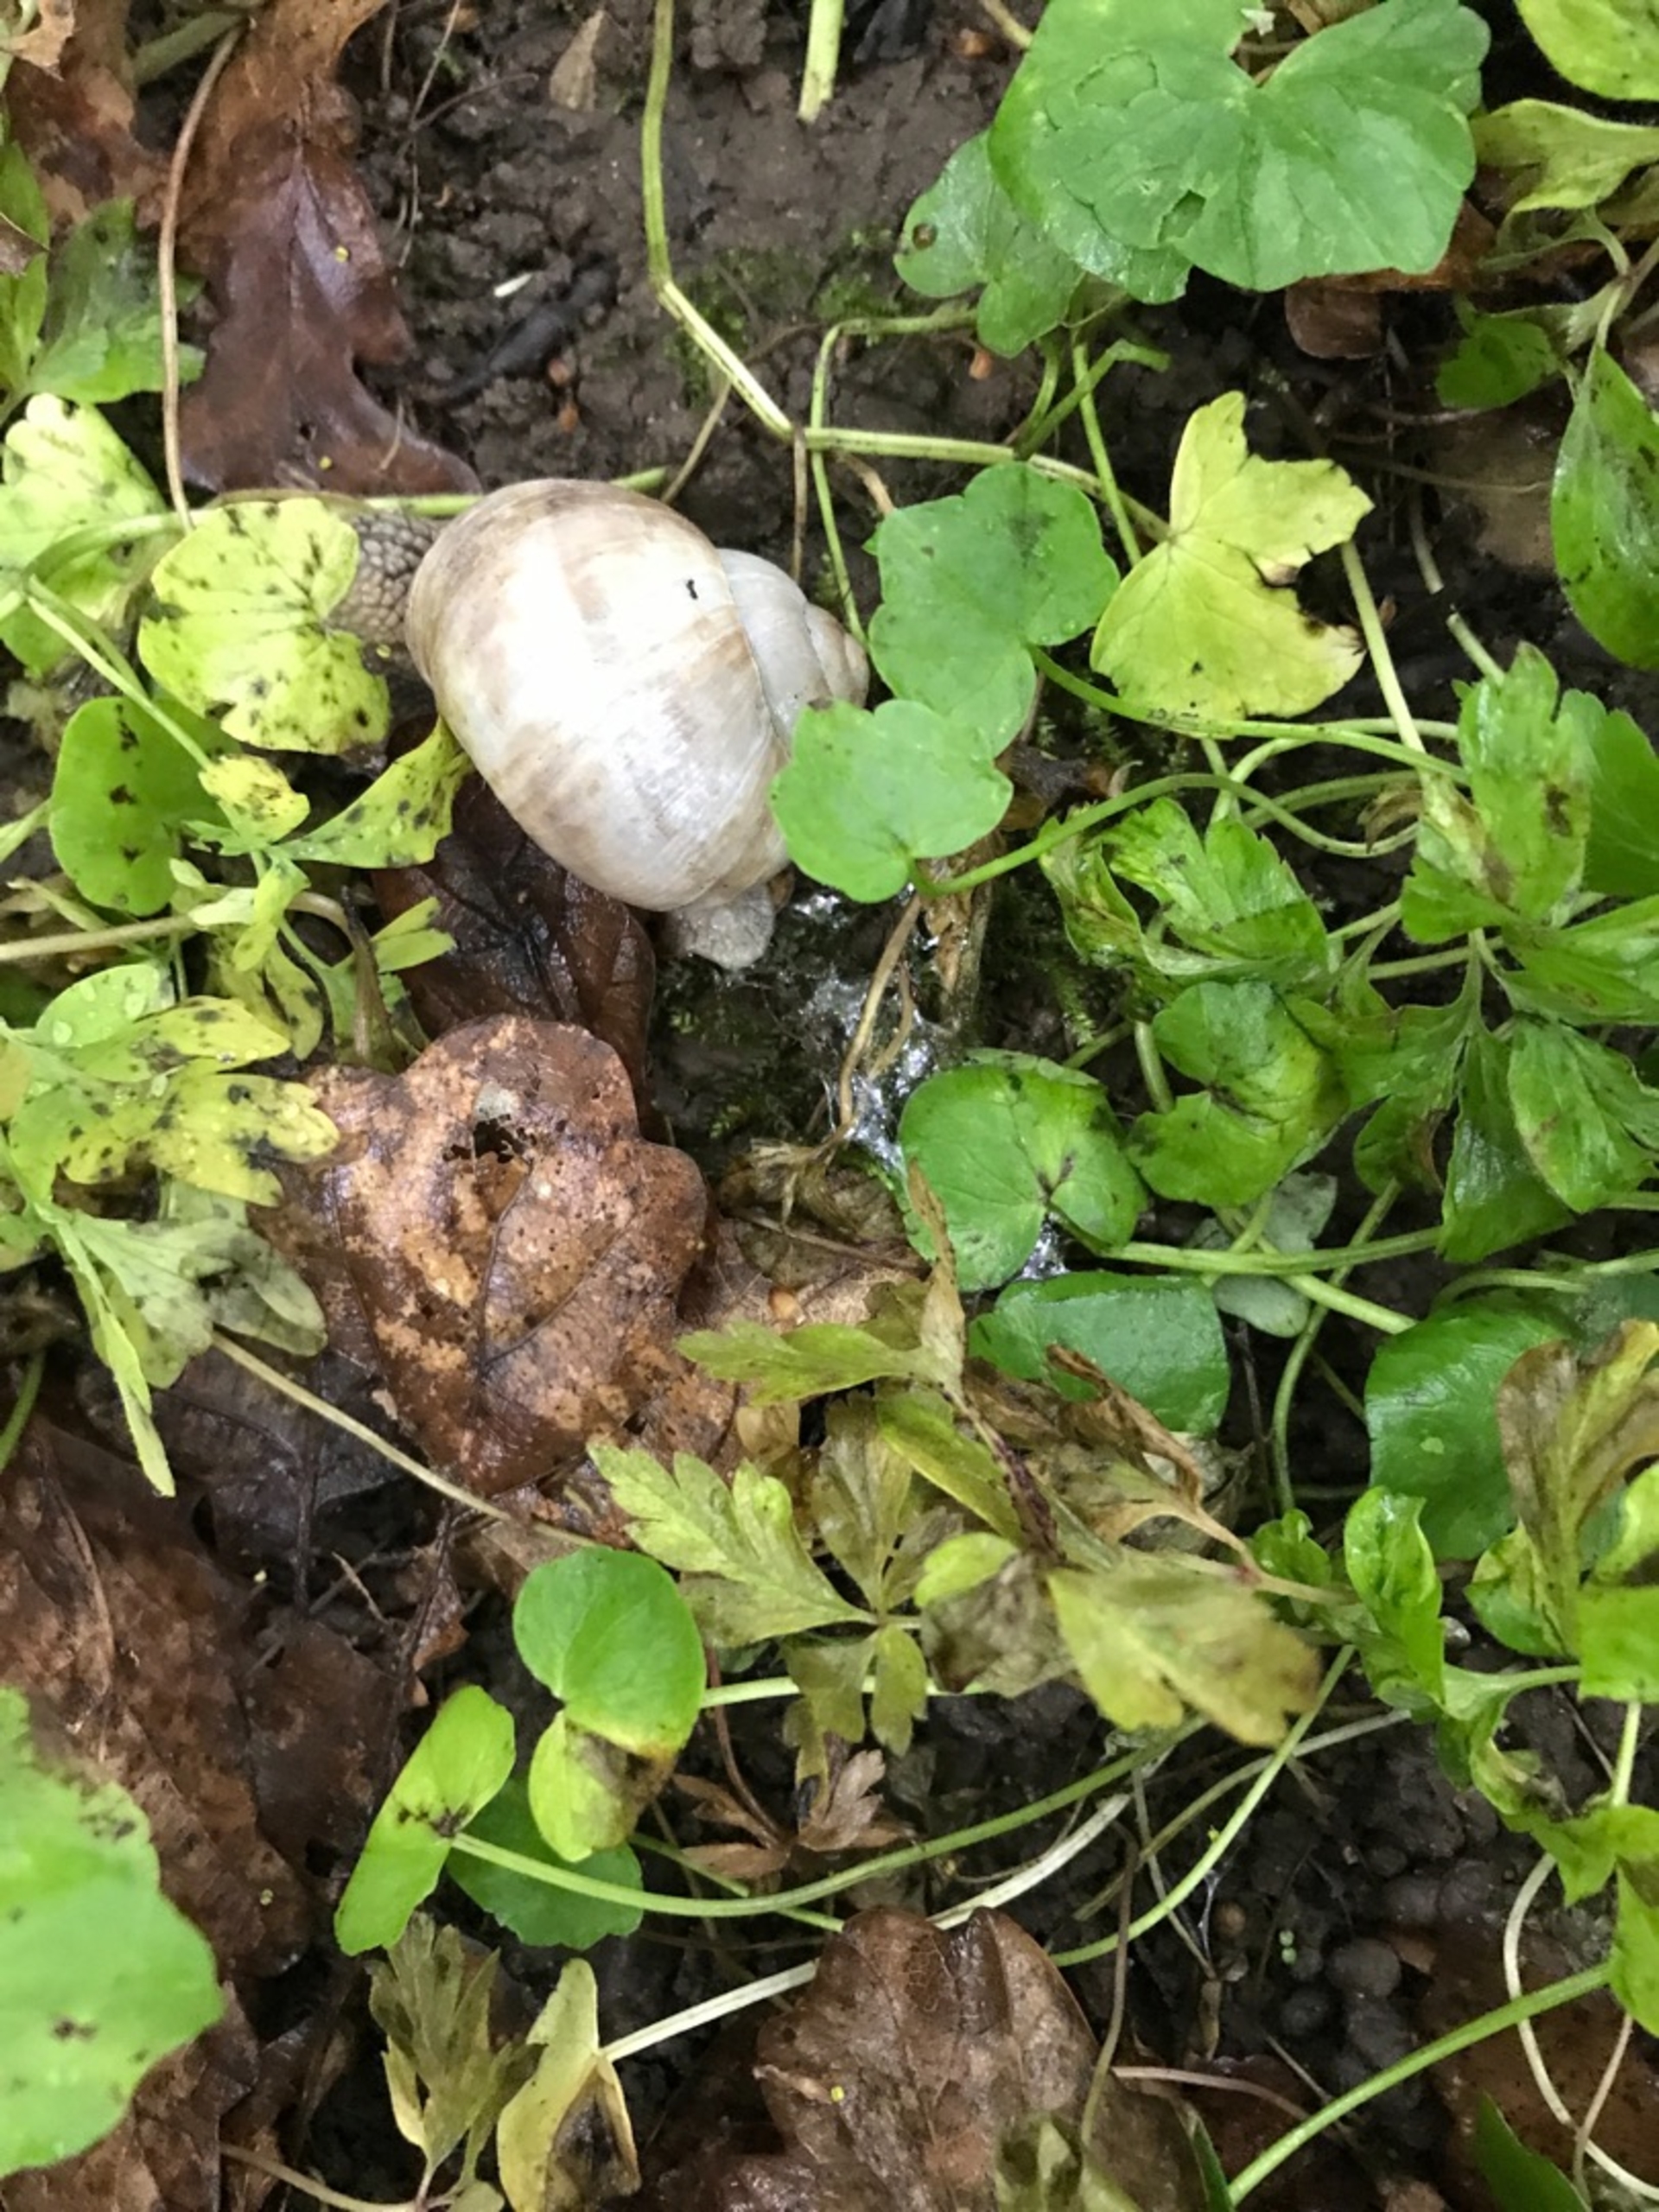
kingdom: Animalia
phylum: Mollusca
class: Gastropoda
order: Stylommatophora
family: Helicidae
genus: Helix
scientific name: Helix pomatia
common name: Vinbjergsnegl
